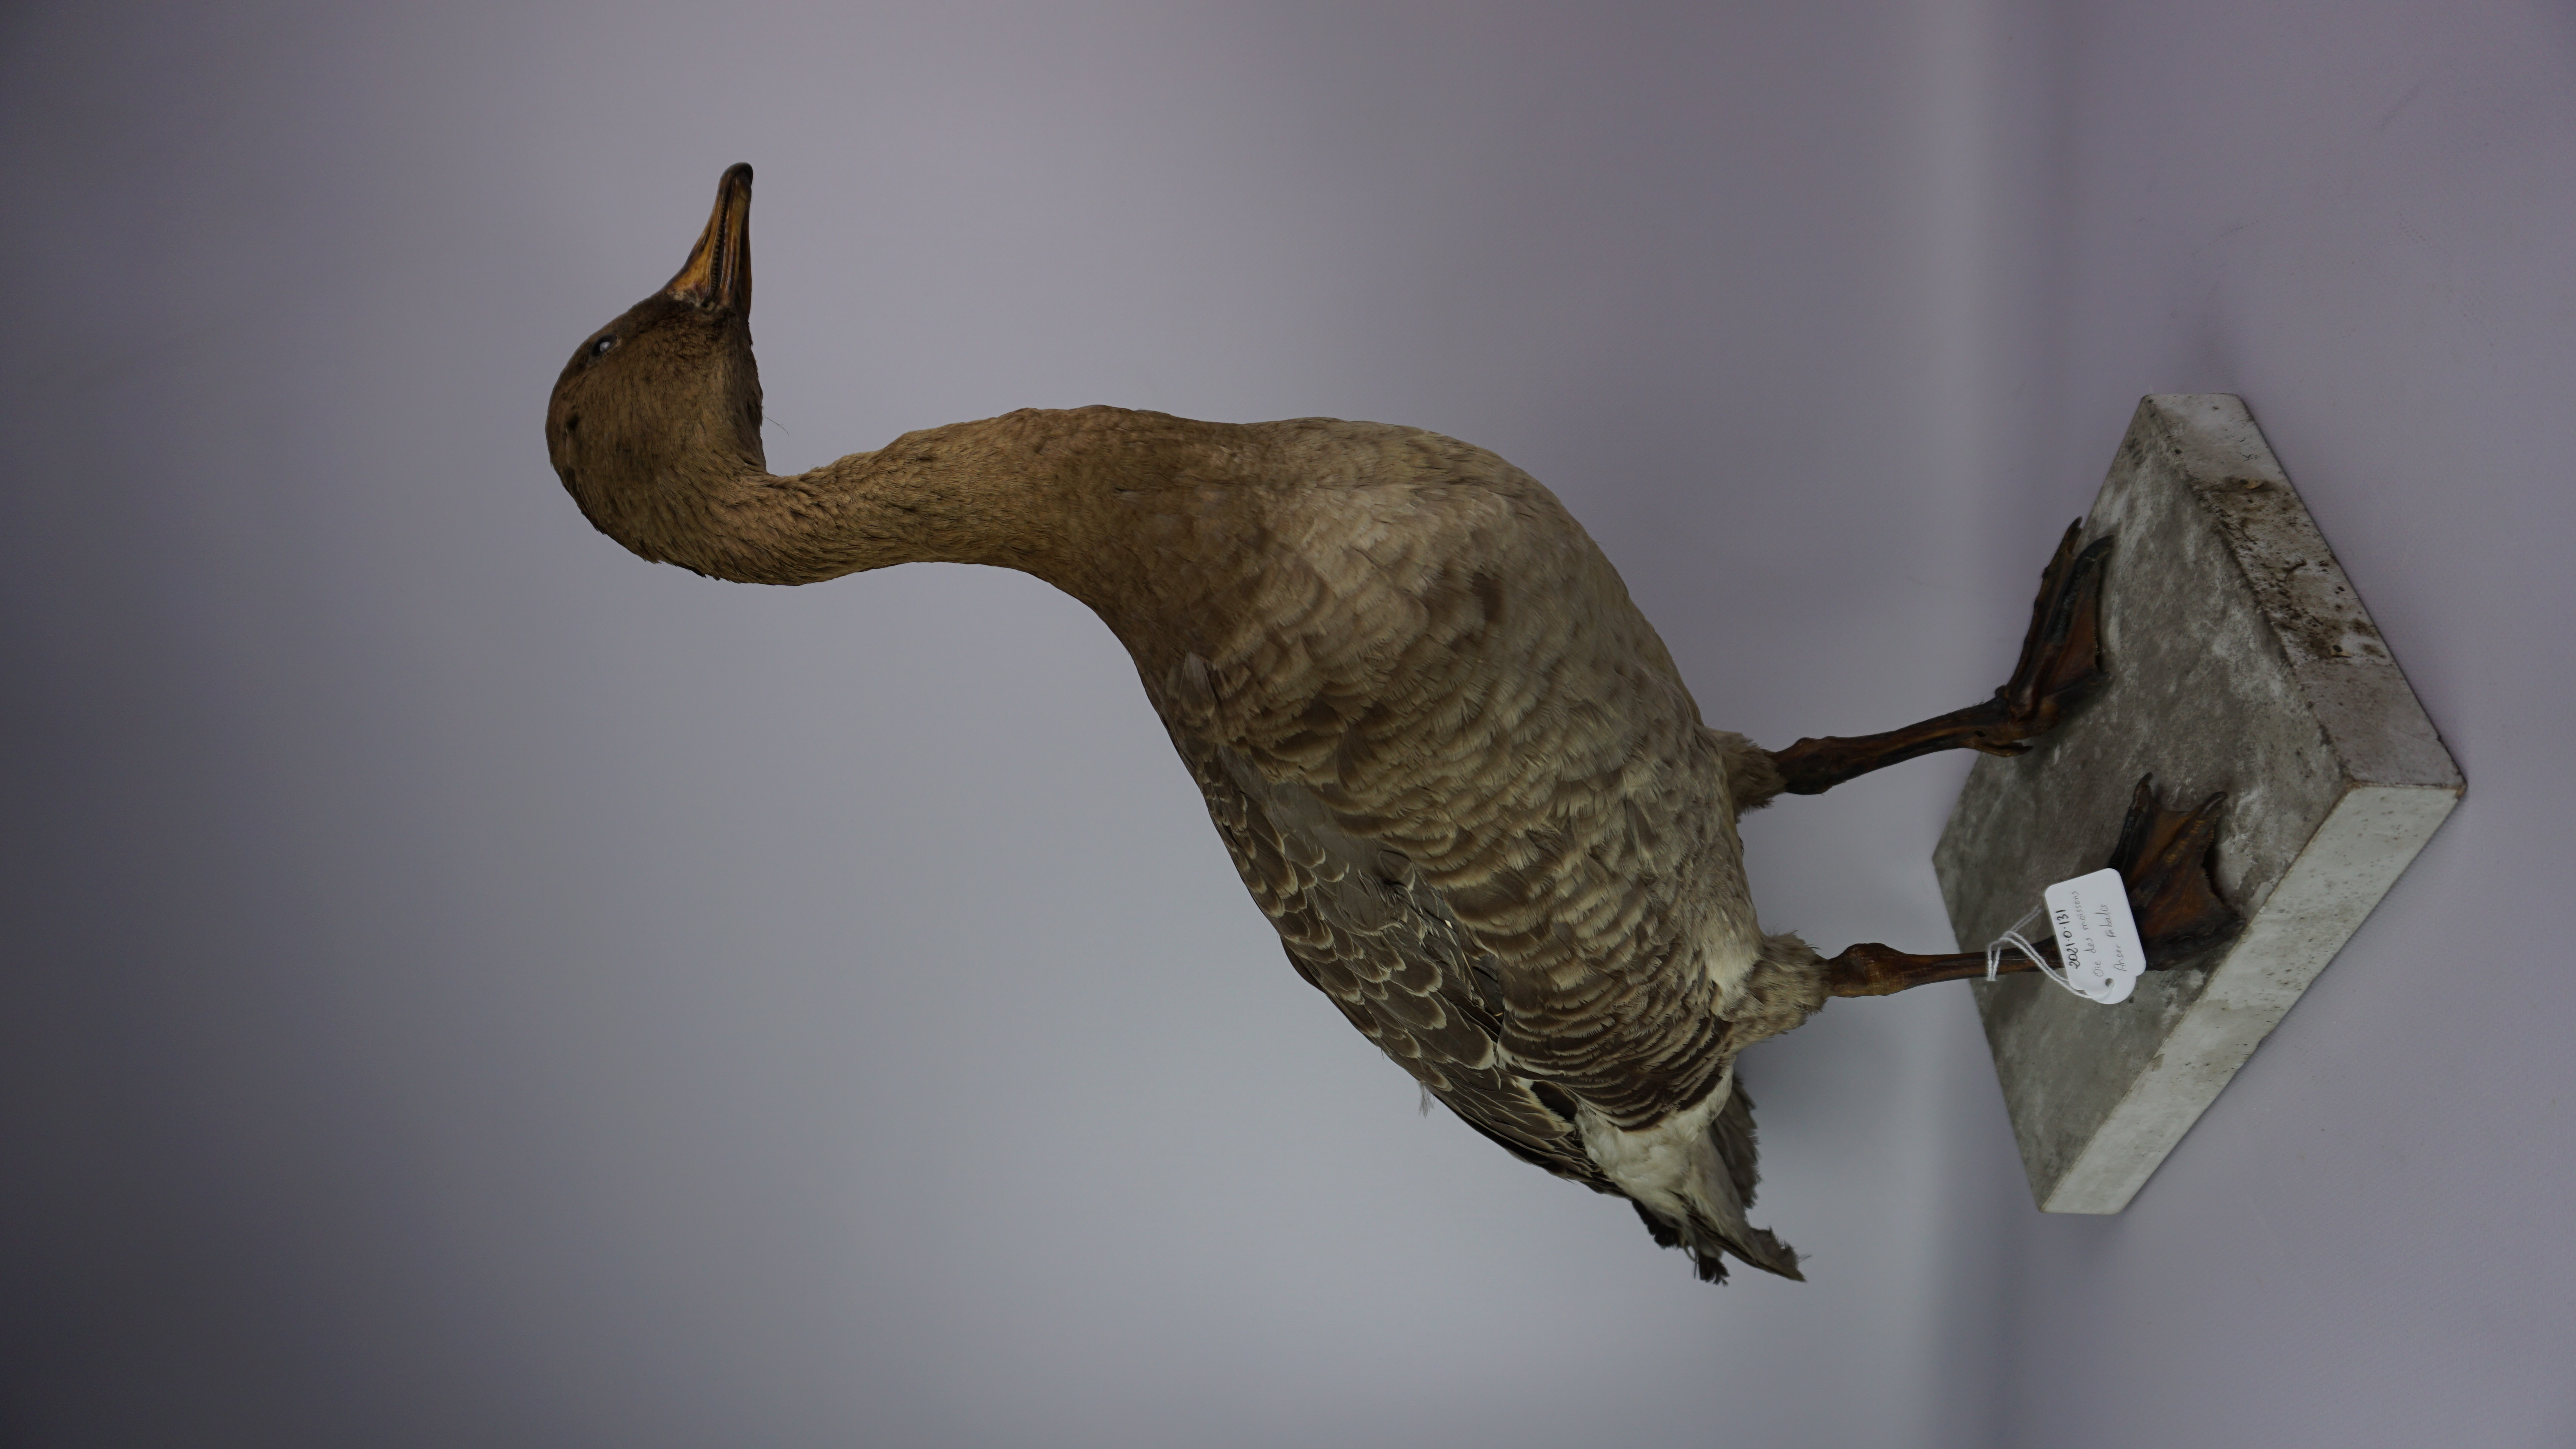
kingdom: Animalia
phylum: Chordata
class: Aves
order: Anseriformes
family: Anatidae
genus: Anser
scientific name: Anser fabalis
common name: Bean goose
